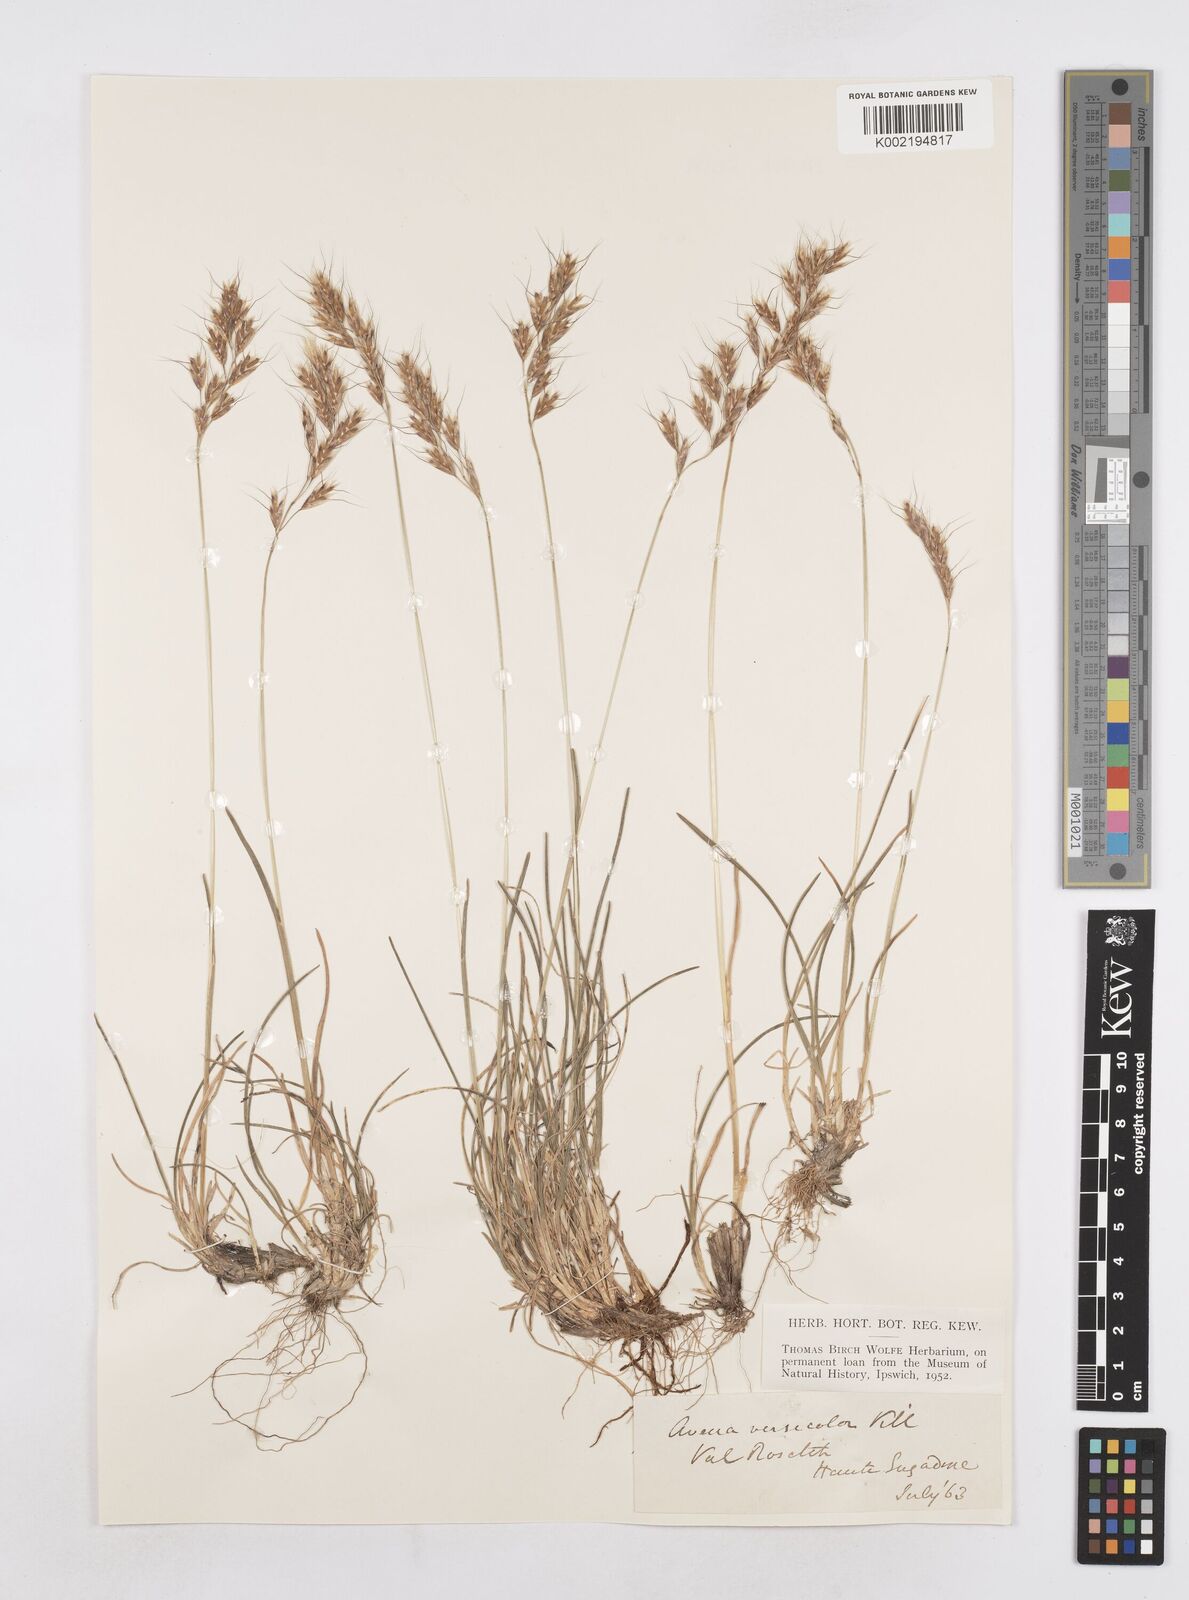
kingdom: Plantae
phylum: Tracheophyta
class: Liliopsida
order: Poales
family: Poaceae
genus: Helictochloa
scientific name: Helictochloa versicolor
